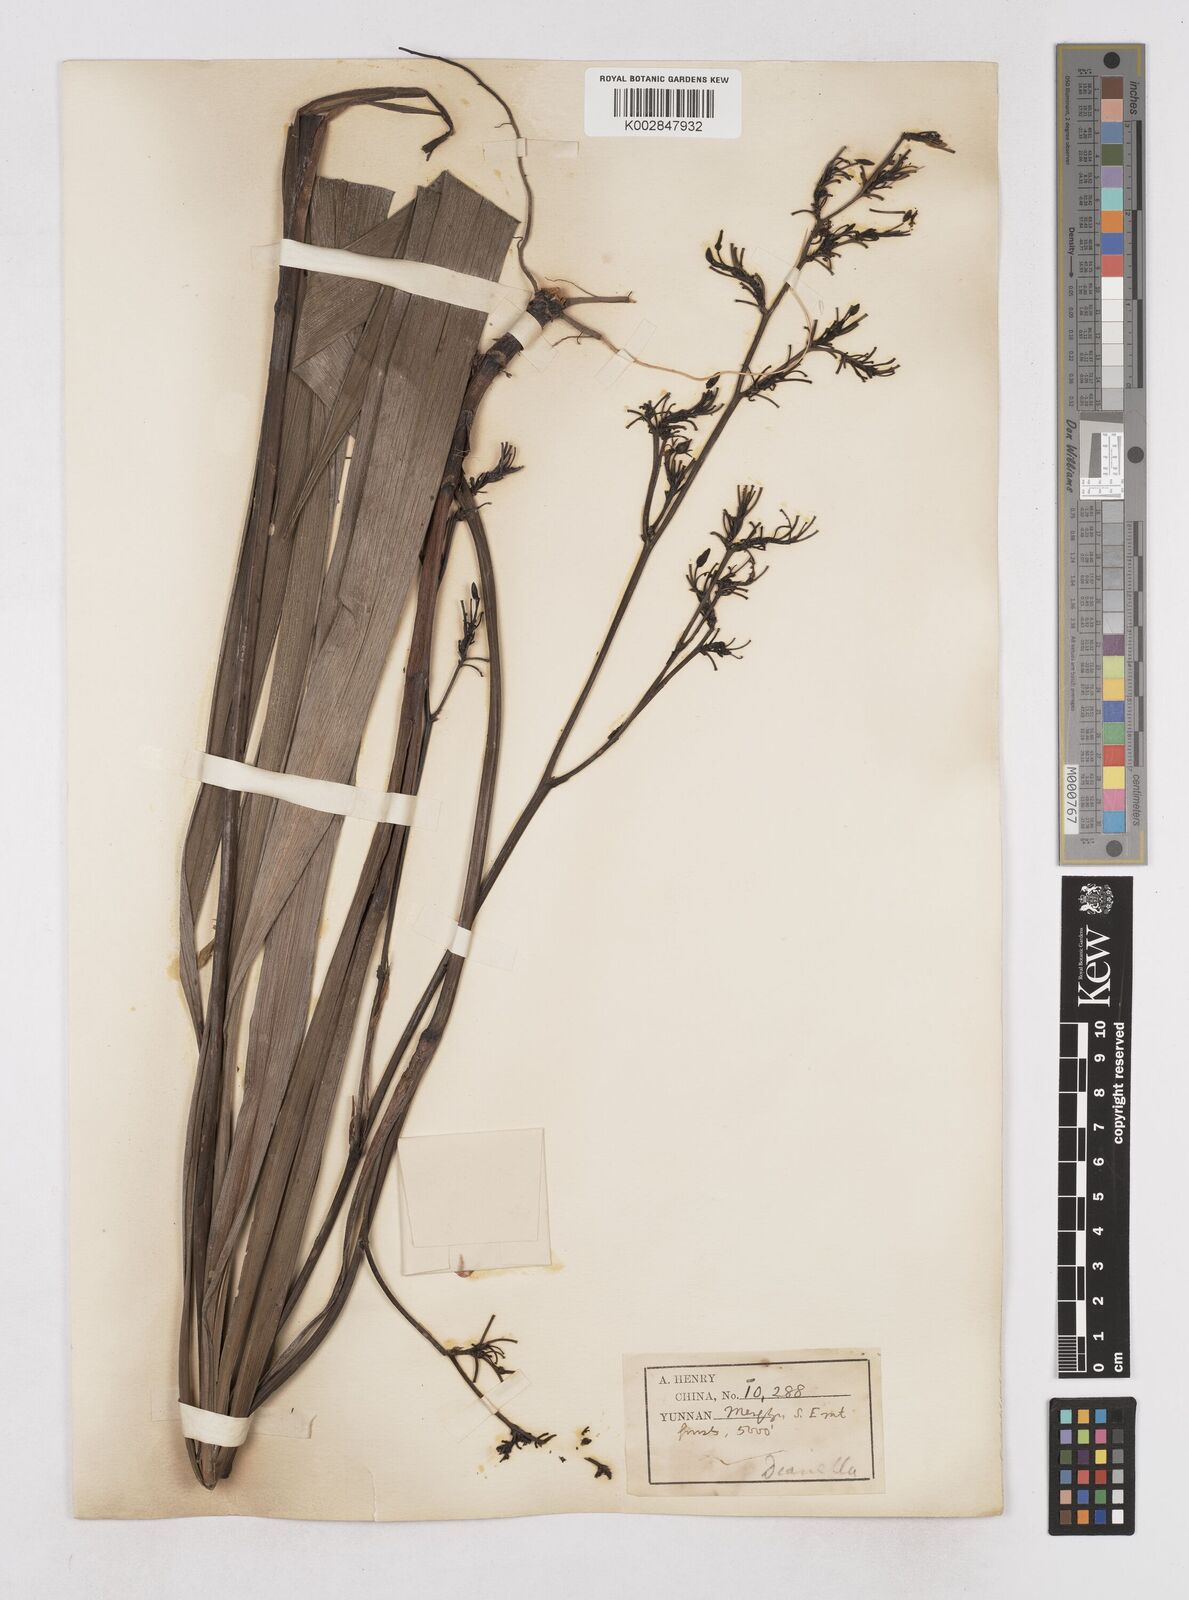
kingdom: Plantae
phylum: Tracheophyta
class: Liliopsida
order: Asparagales
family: Asphodelaceae
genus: Dianella
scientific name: Dianella ensifolia
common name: New zealand lilyplant
